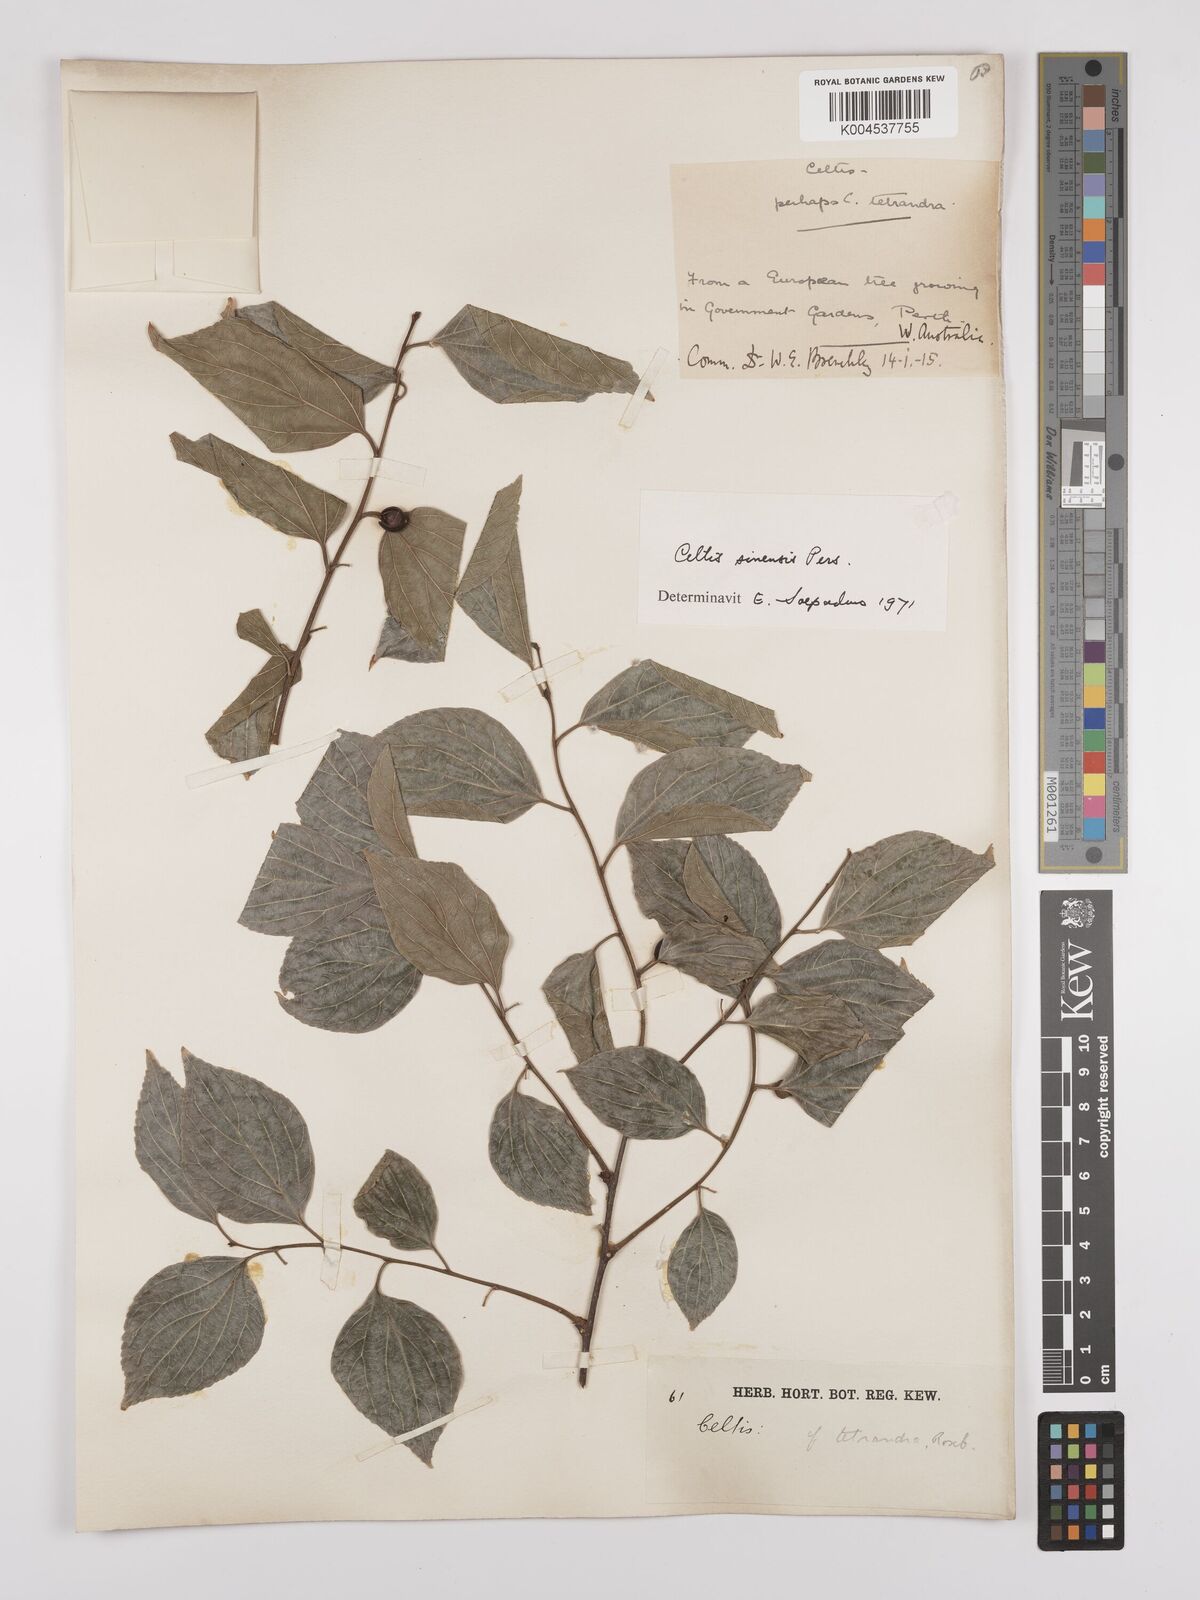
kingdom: Plantae
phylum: Tracheophyta
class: Magnoliopsida
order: Rosales
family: Cannabaceae
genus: Celtis
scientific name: Celtis
